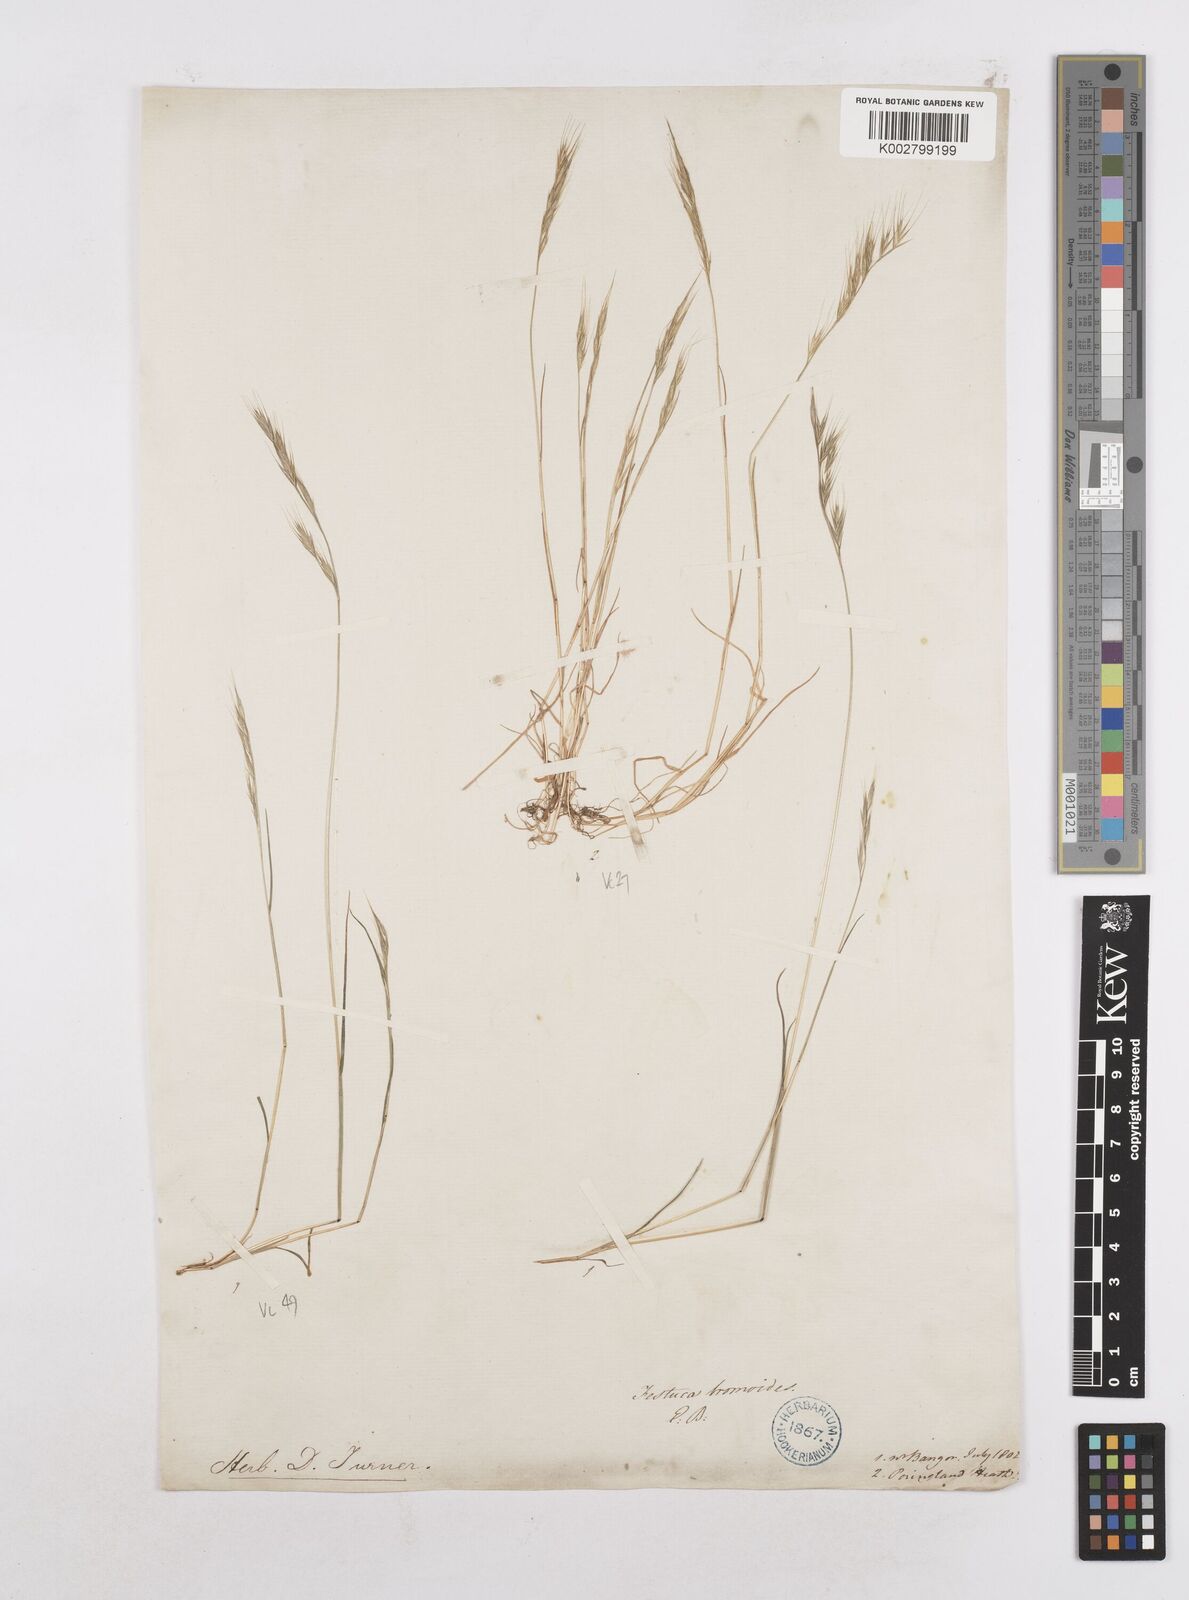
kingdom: Plantae
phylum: Tracheophyta
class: Liliopsida
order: Poales
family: Poaceae
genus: Festuca
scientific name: Festuca bromoides
